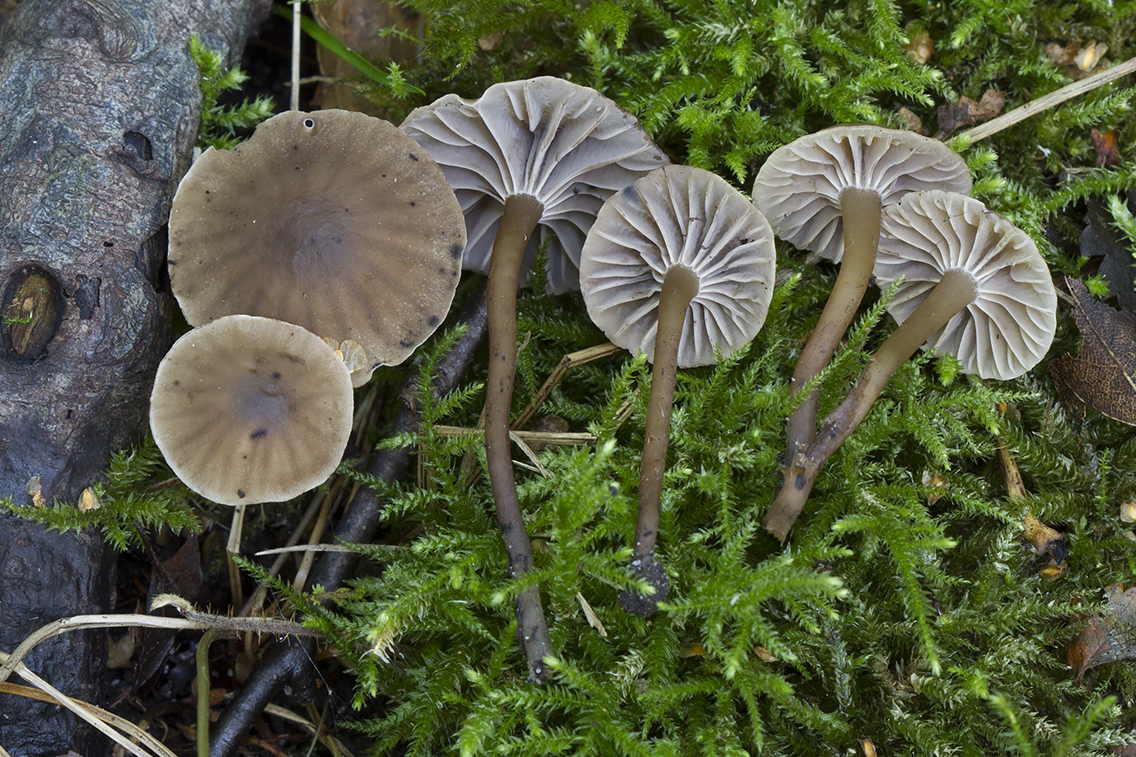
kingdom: Fungi
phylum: Basidiomycota
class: Agaricomycetes
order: Agaricales
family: Clavariaceae
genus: Hodophilus
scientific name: Hodophilus foetens
